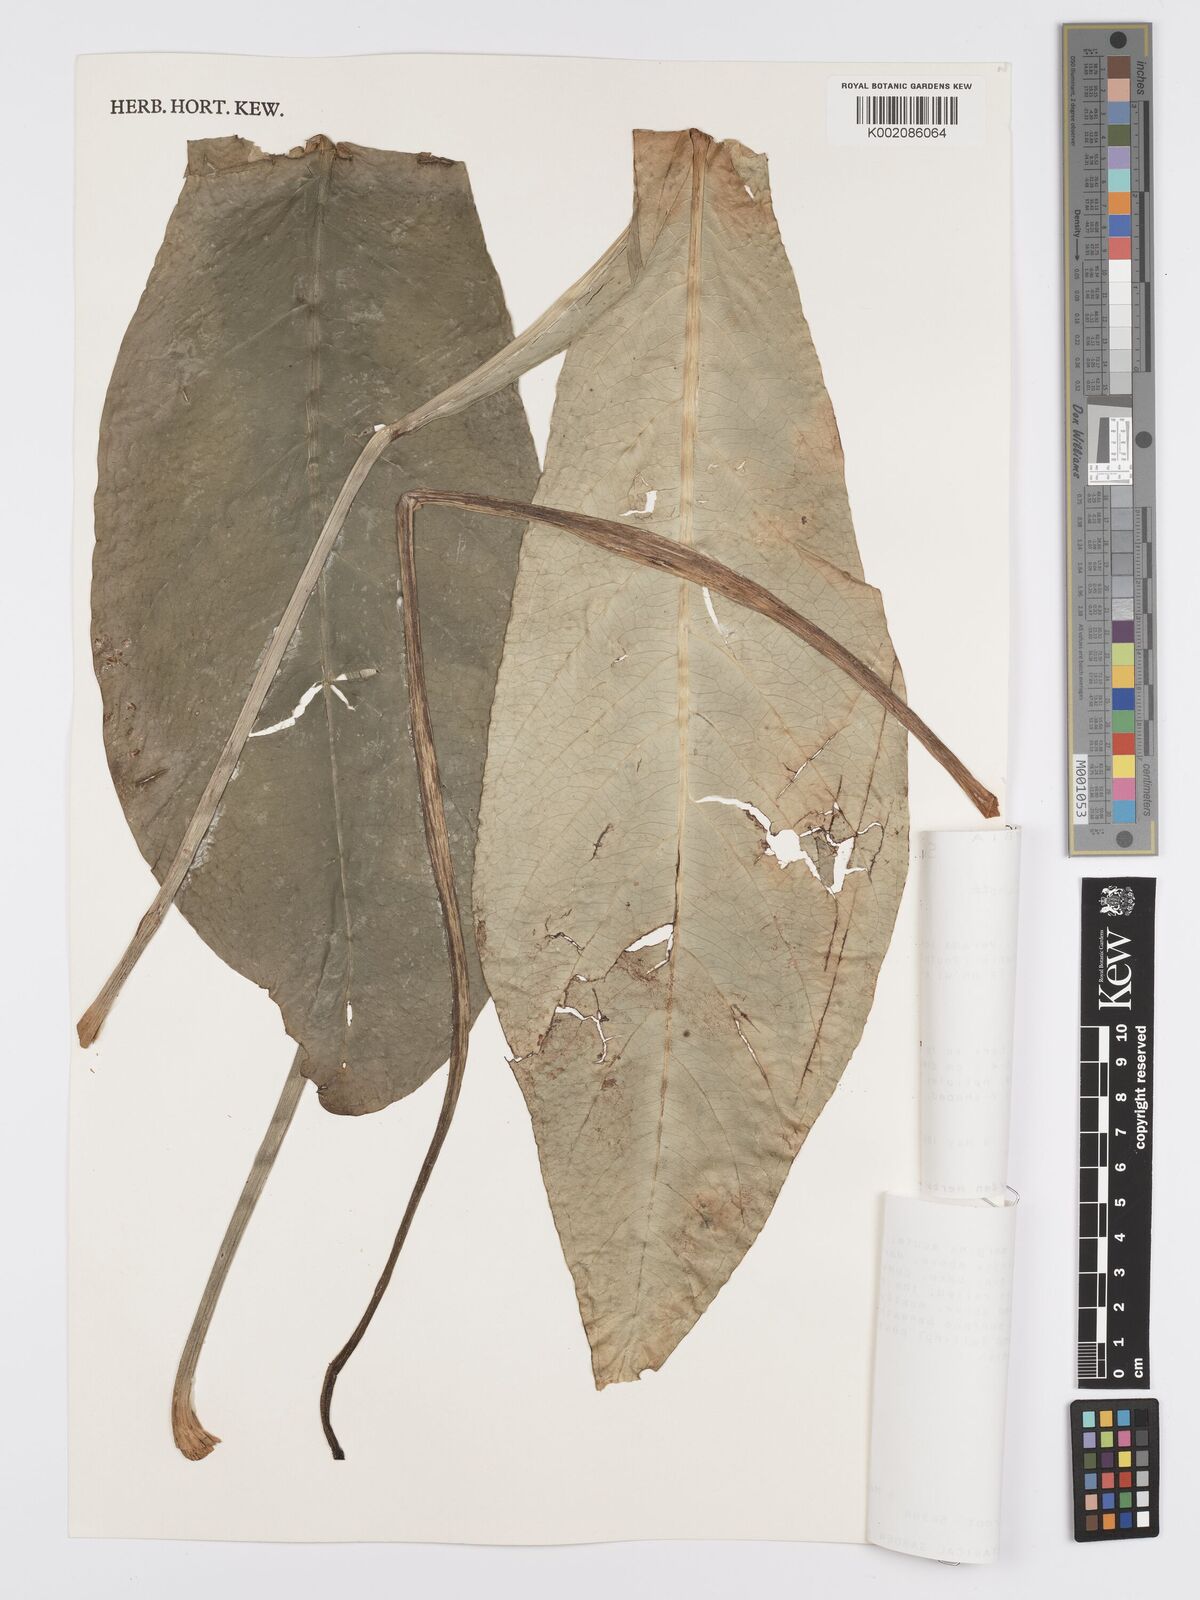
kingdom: Plantae
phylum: Tracheophyta
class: Liliopsida
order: Alismatales
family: Araceae
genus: Anthurium
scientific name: Anthurium fendleri
